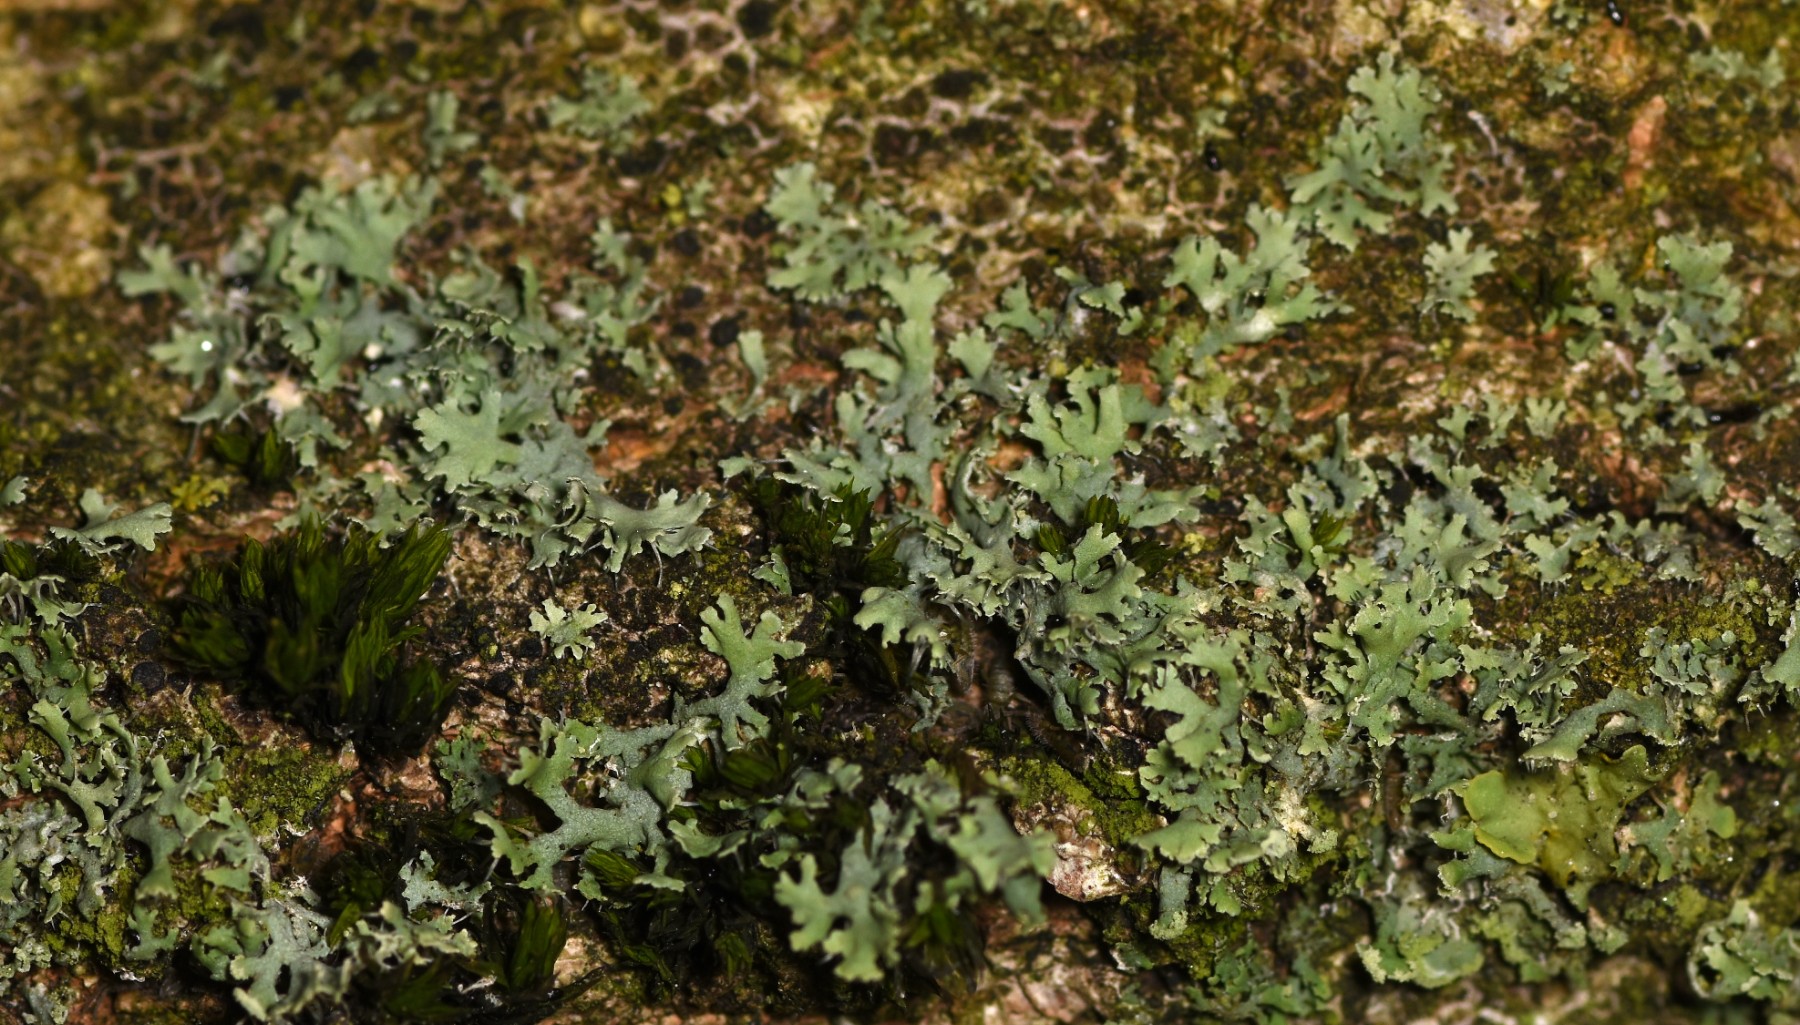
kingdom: Fungi
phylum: Ascomycota
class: Lecanoromycetes
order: Caliciales
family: Physciaceae
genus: Physcia
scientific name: Physcia tenella
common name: spæd rosetlav
